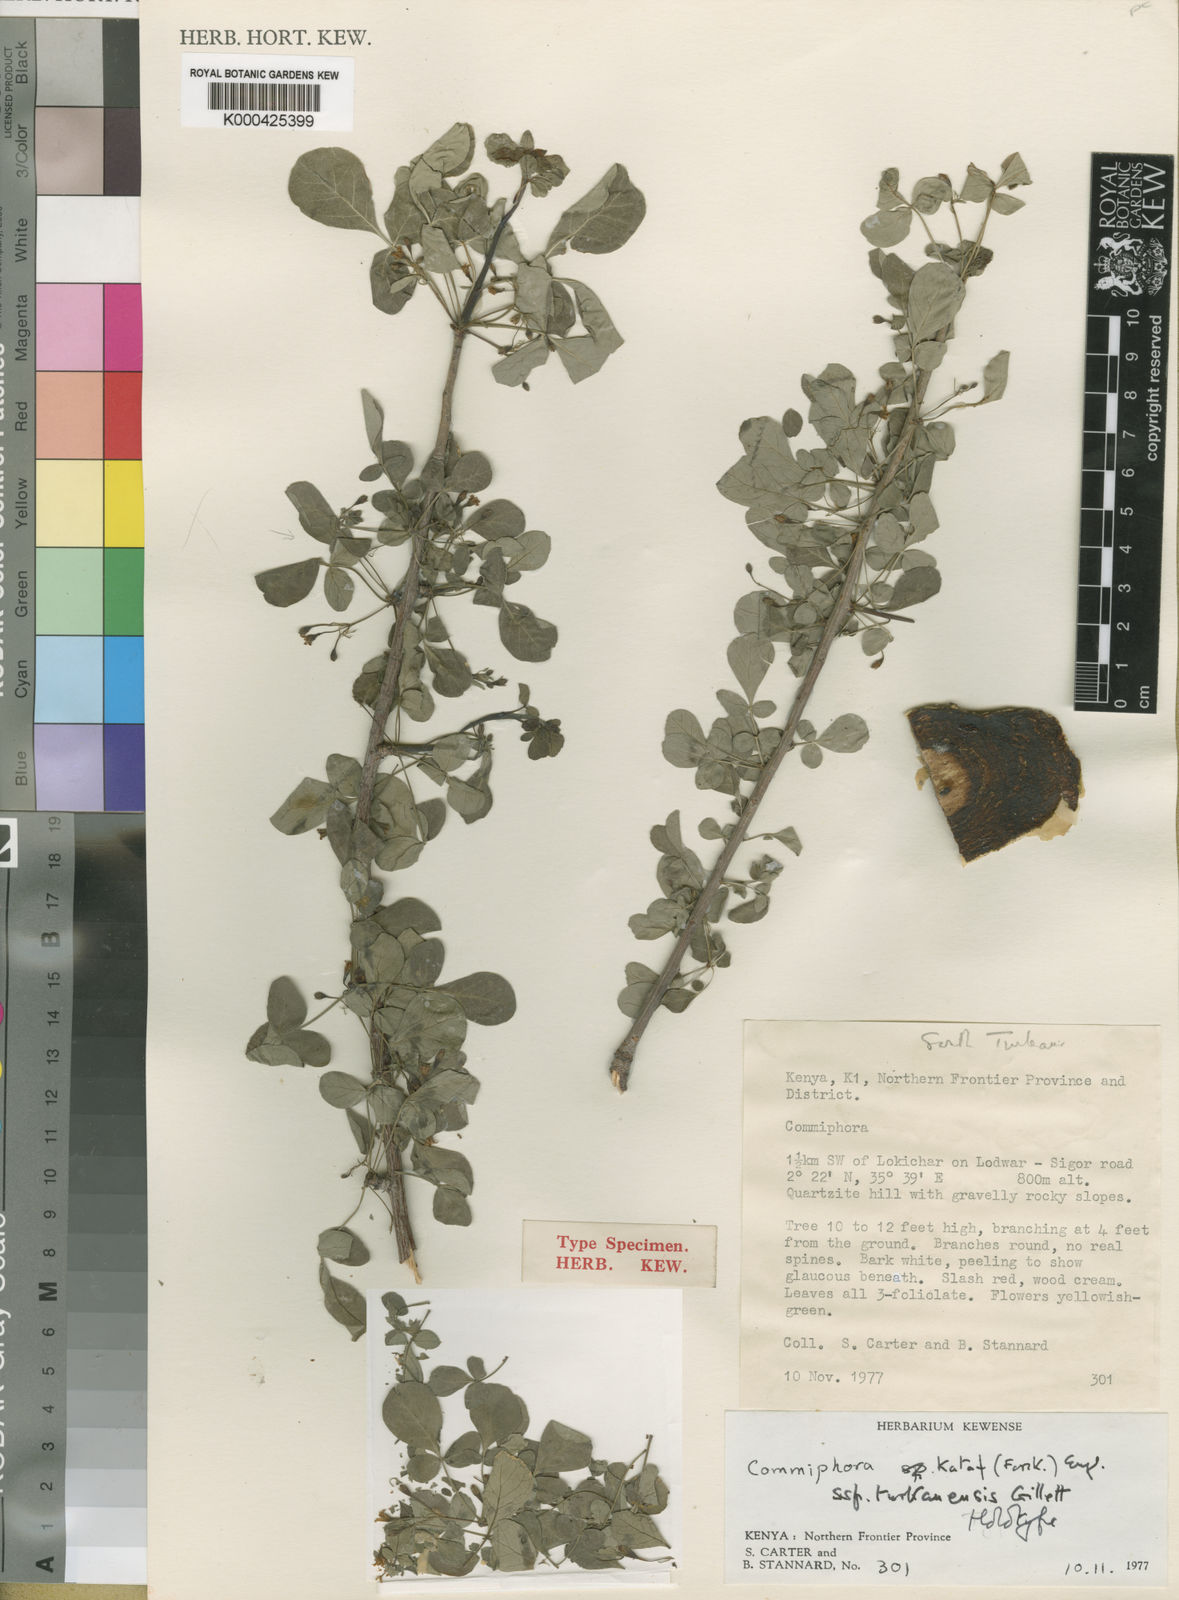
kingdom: Plantae
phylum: Tracheophyta
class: Magnoliopsida
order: Sapindales
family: Burseraceae
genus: Commiphora
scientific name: Commiphora kataf
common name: Bisabol myrrh
